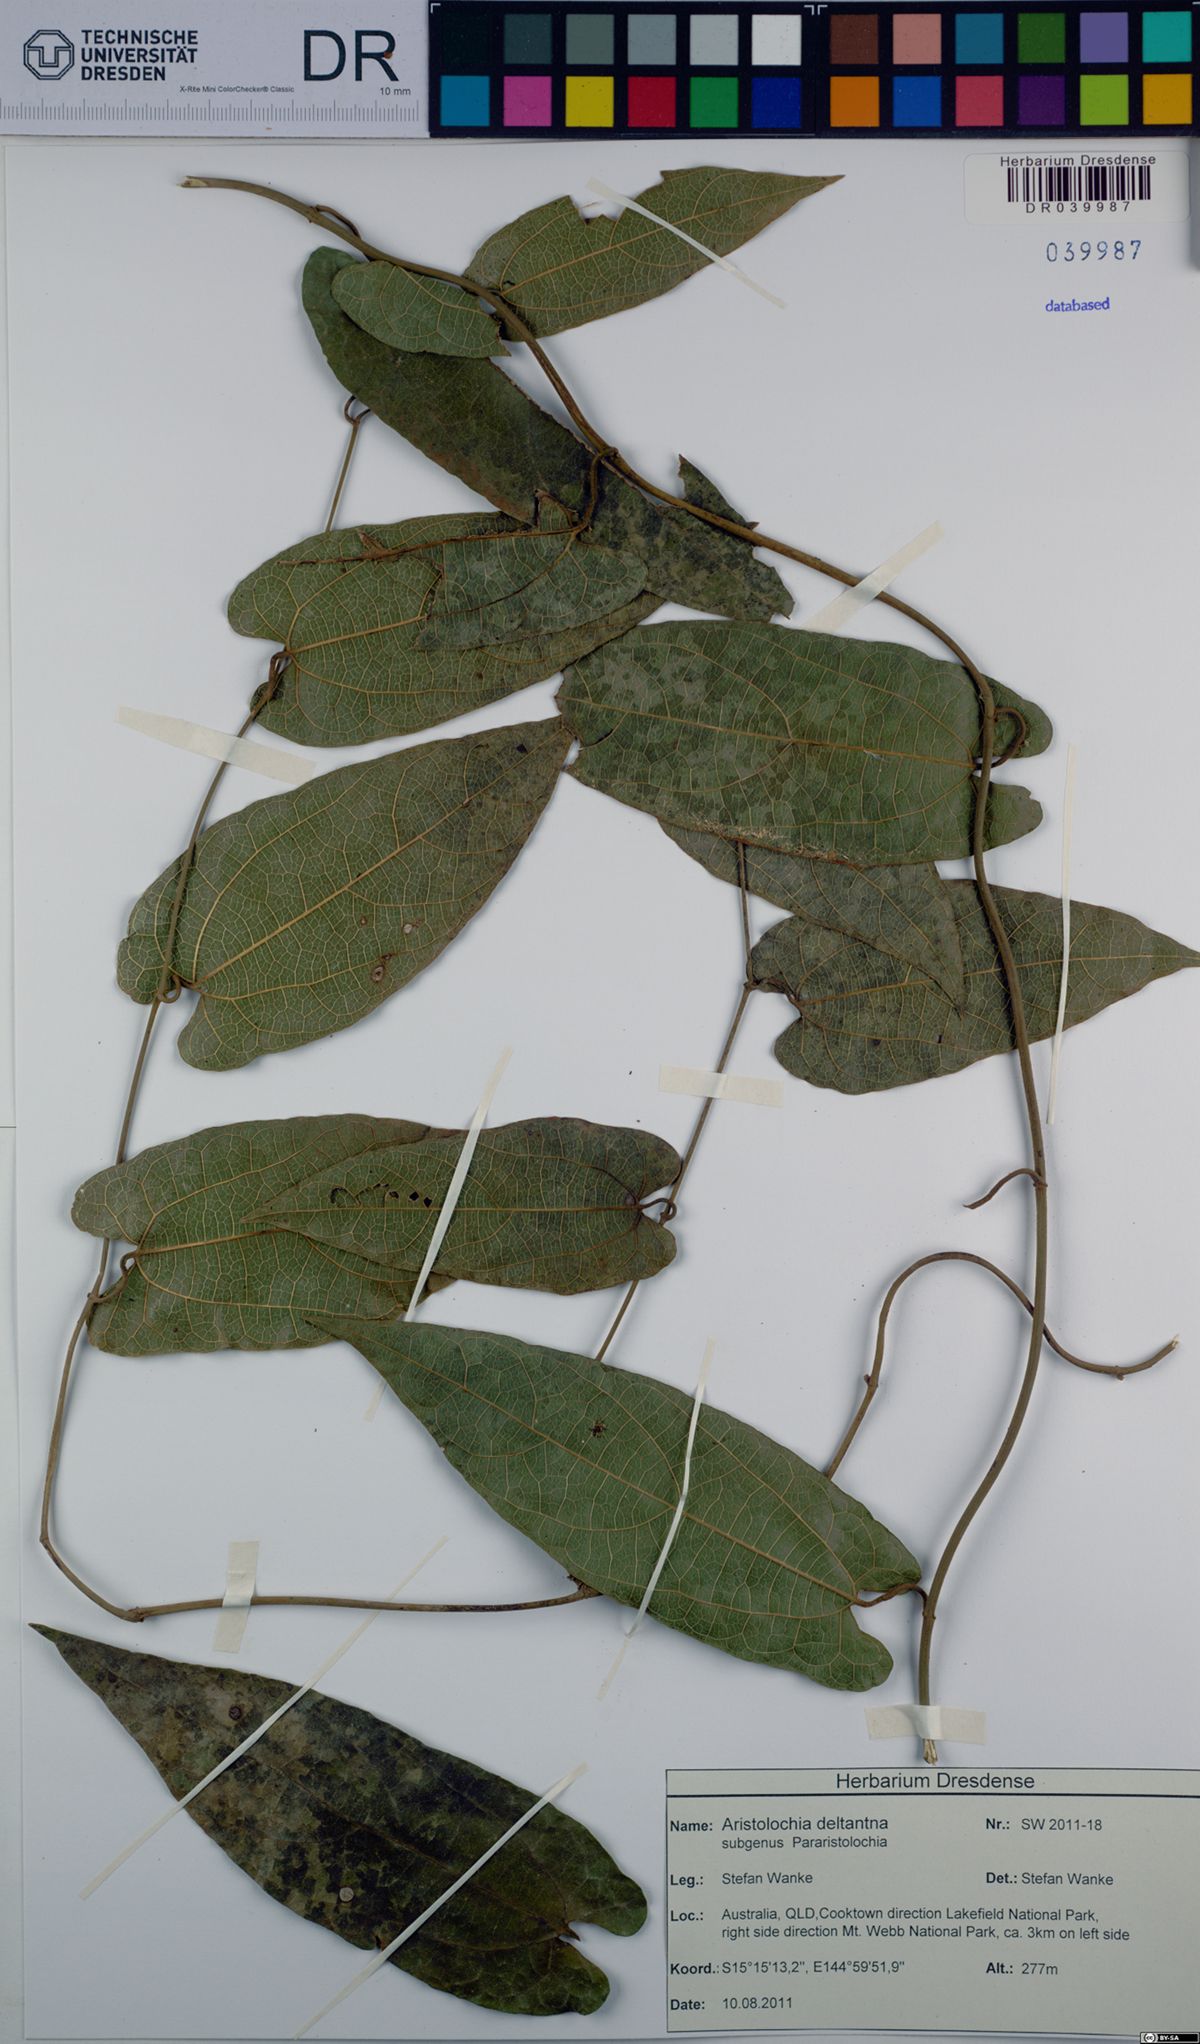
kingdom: Plantae
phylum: Tracheophyta
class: Magnoliopsida
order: Piperales
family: Aristolochiaceae
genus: Aristolochia
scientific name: Aristolochia deltantha
